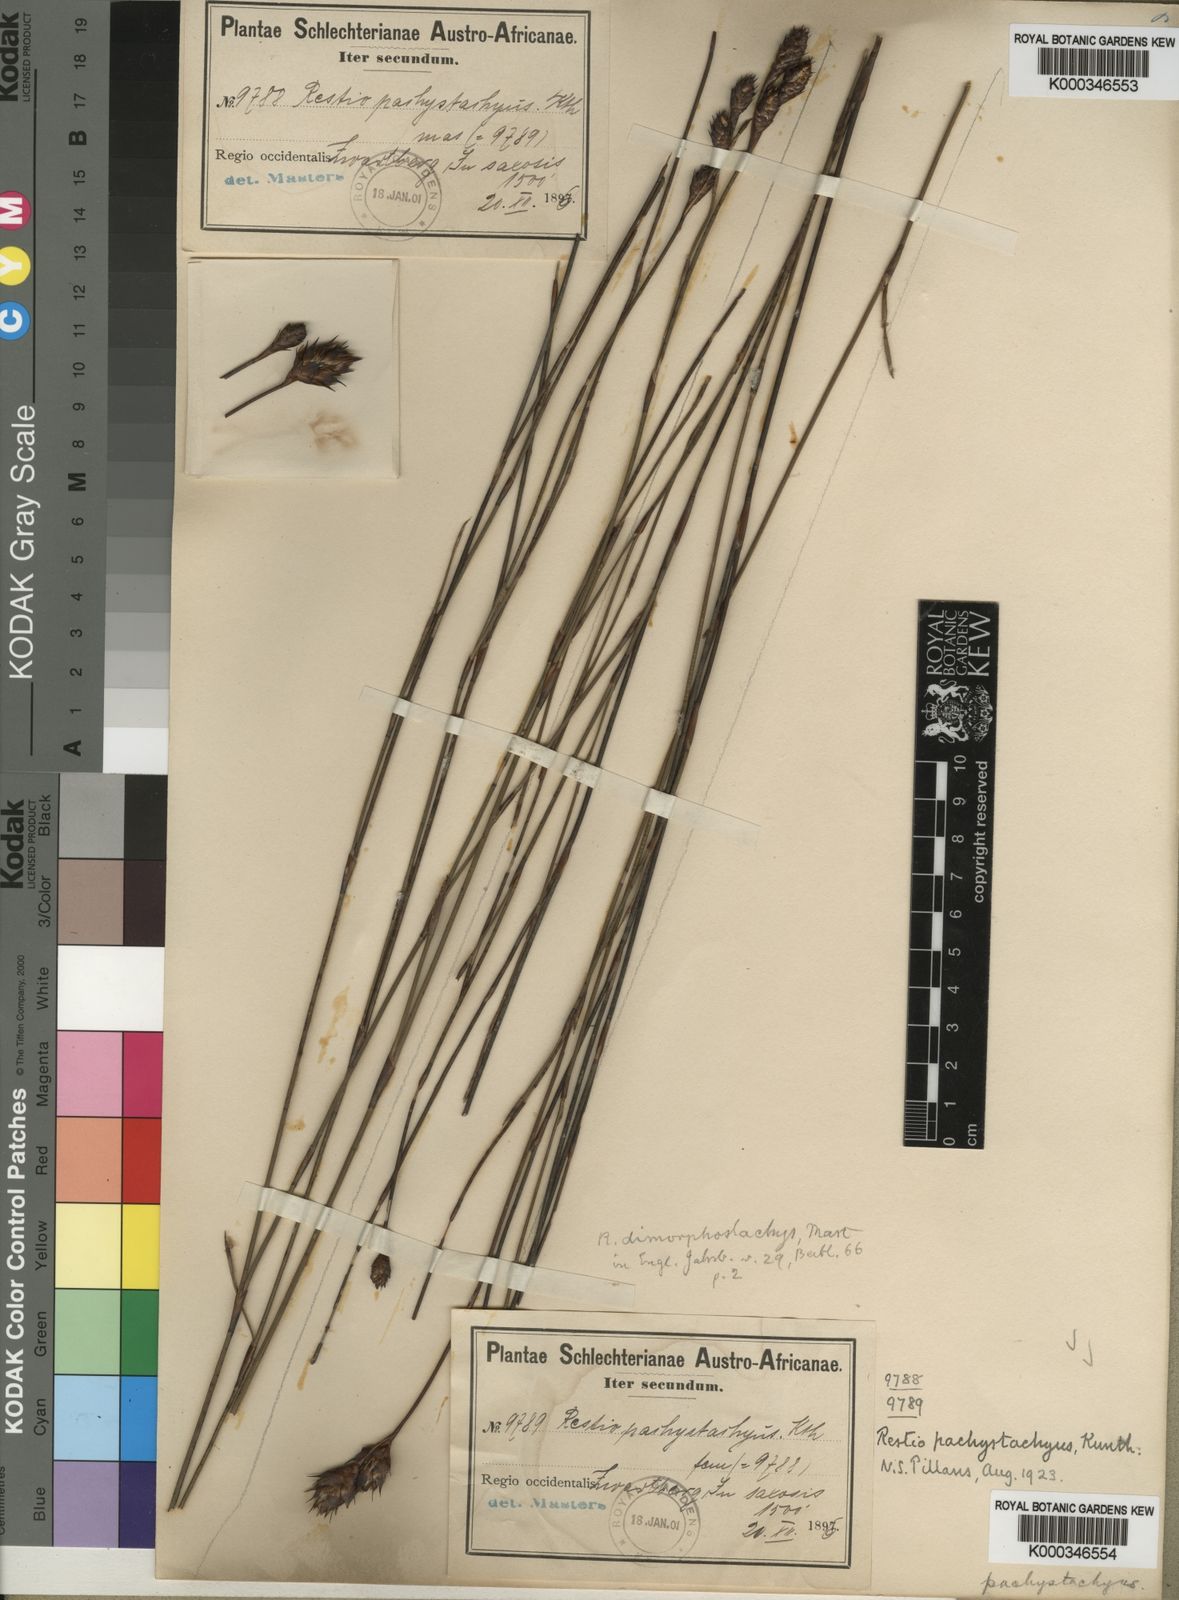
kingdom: Plantae
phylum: Tracheophyta
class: Liliopsida
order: Poales
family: Restionaceae
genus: Restio
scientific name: Restio pachystachyus
